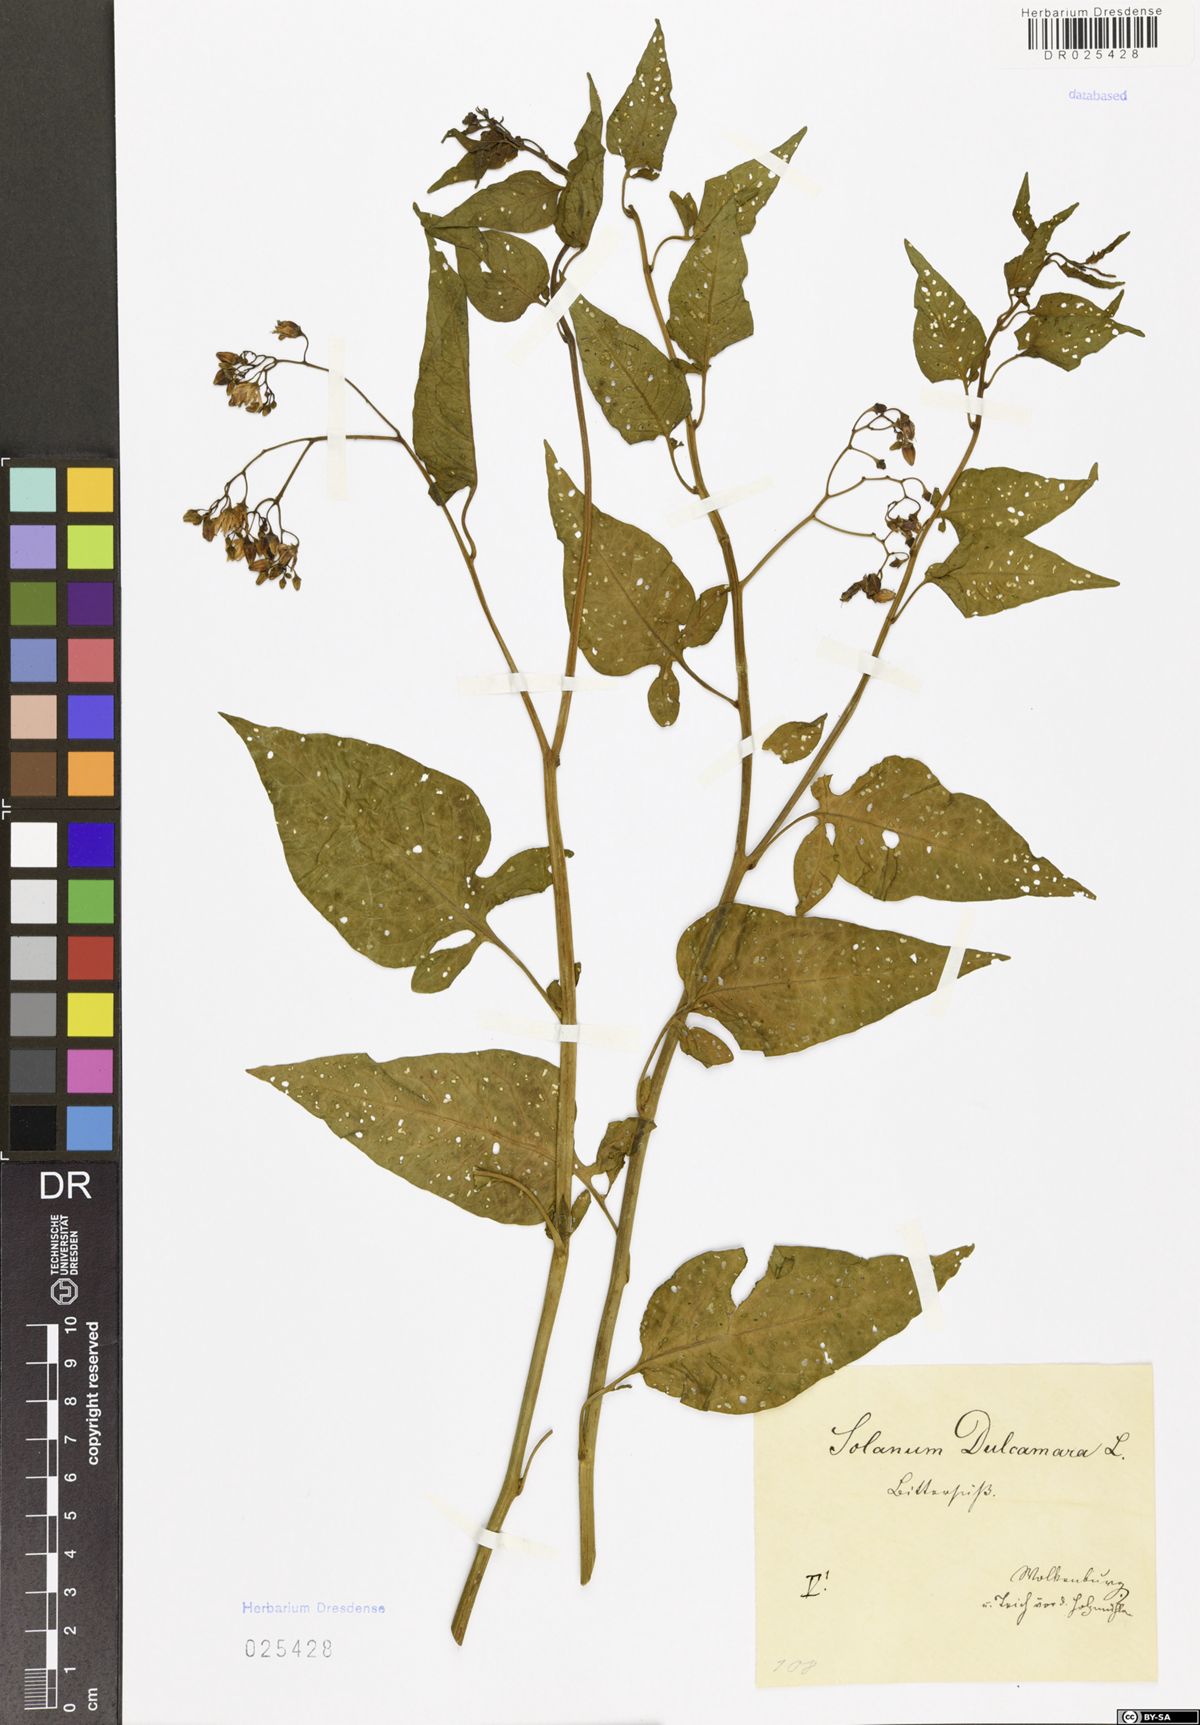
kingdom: Plantae
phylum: Tracheophyta
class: Magnoliopsida
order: Solanales
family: Solanaceae
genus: Solanum
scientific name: Solanum dulcamara
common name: Climbing nightshade
